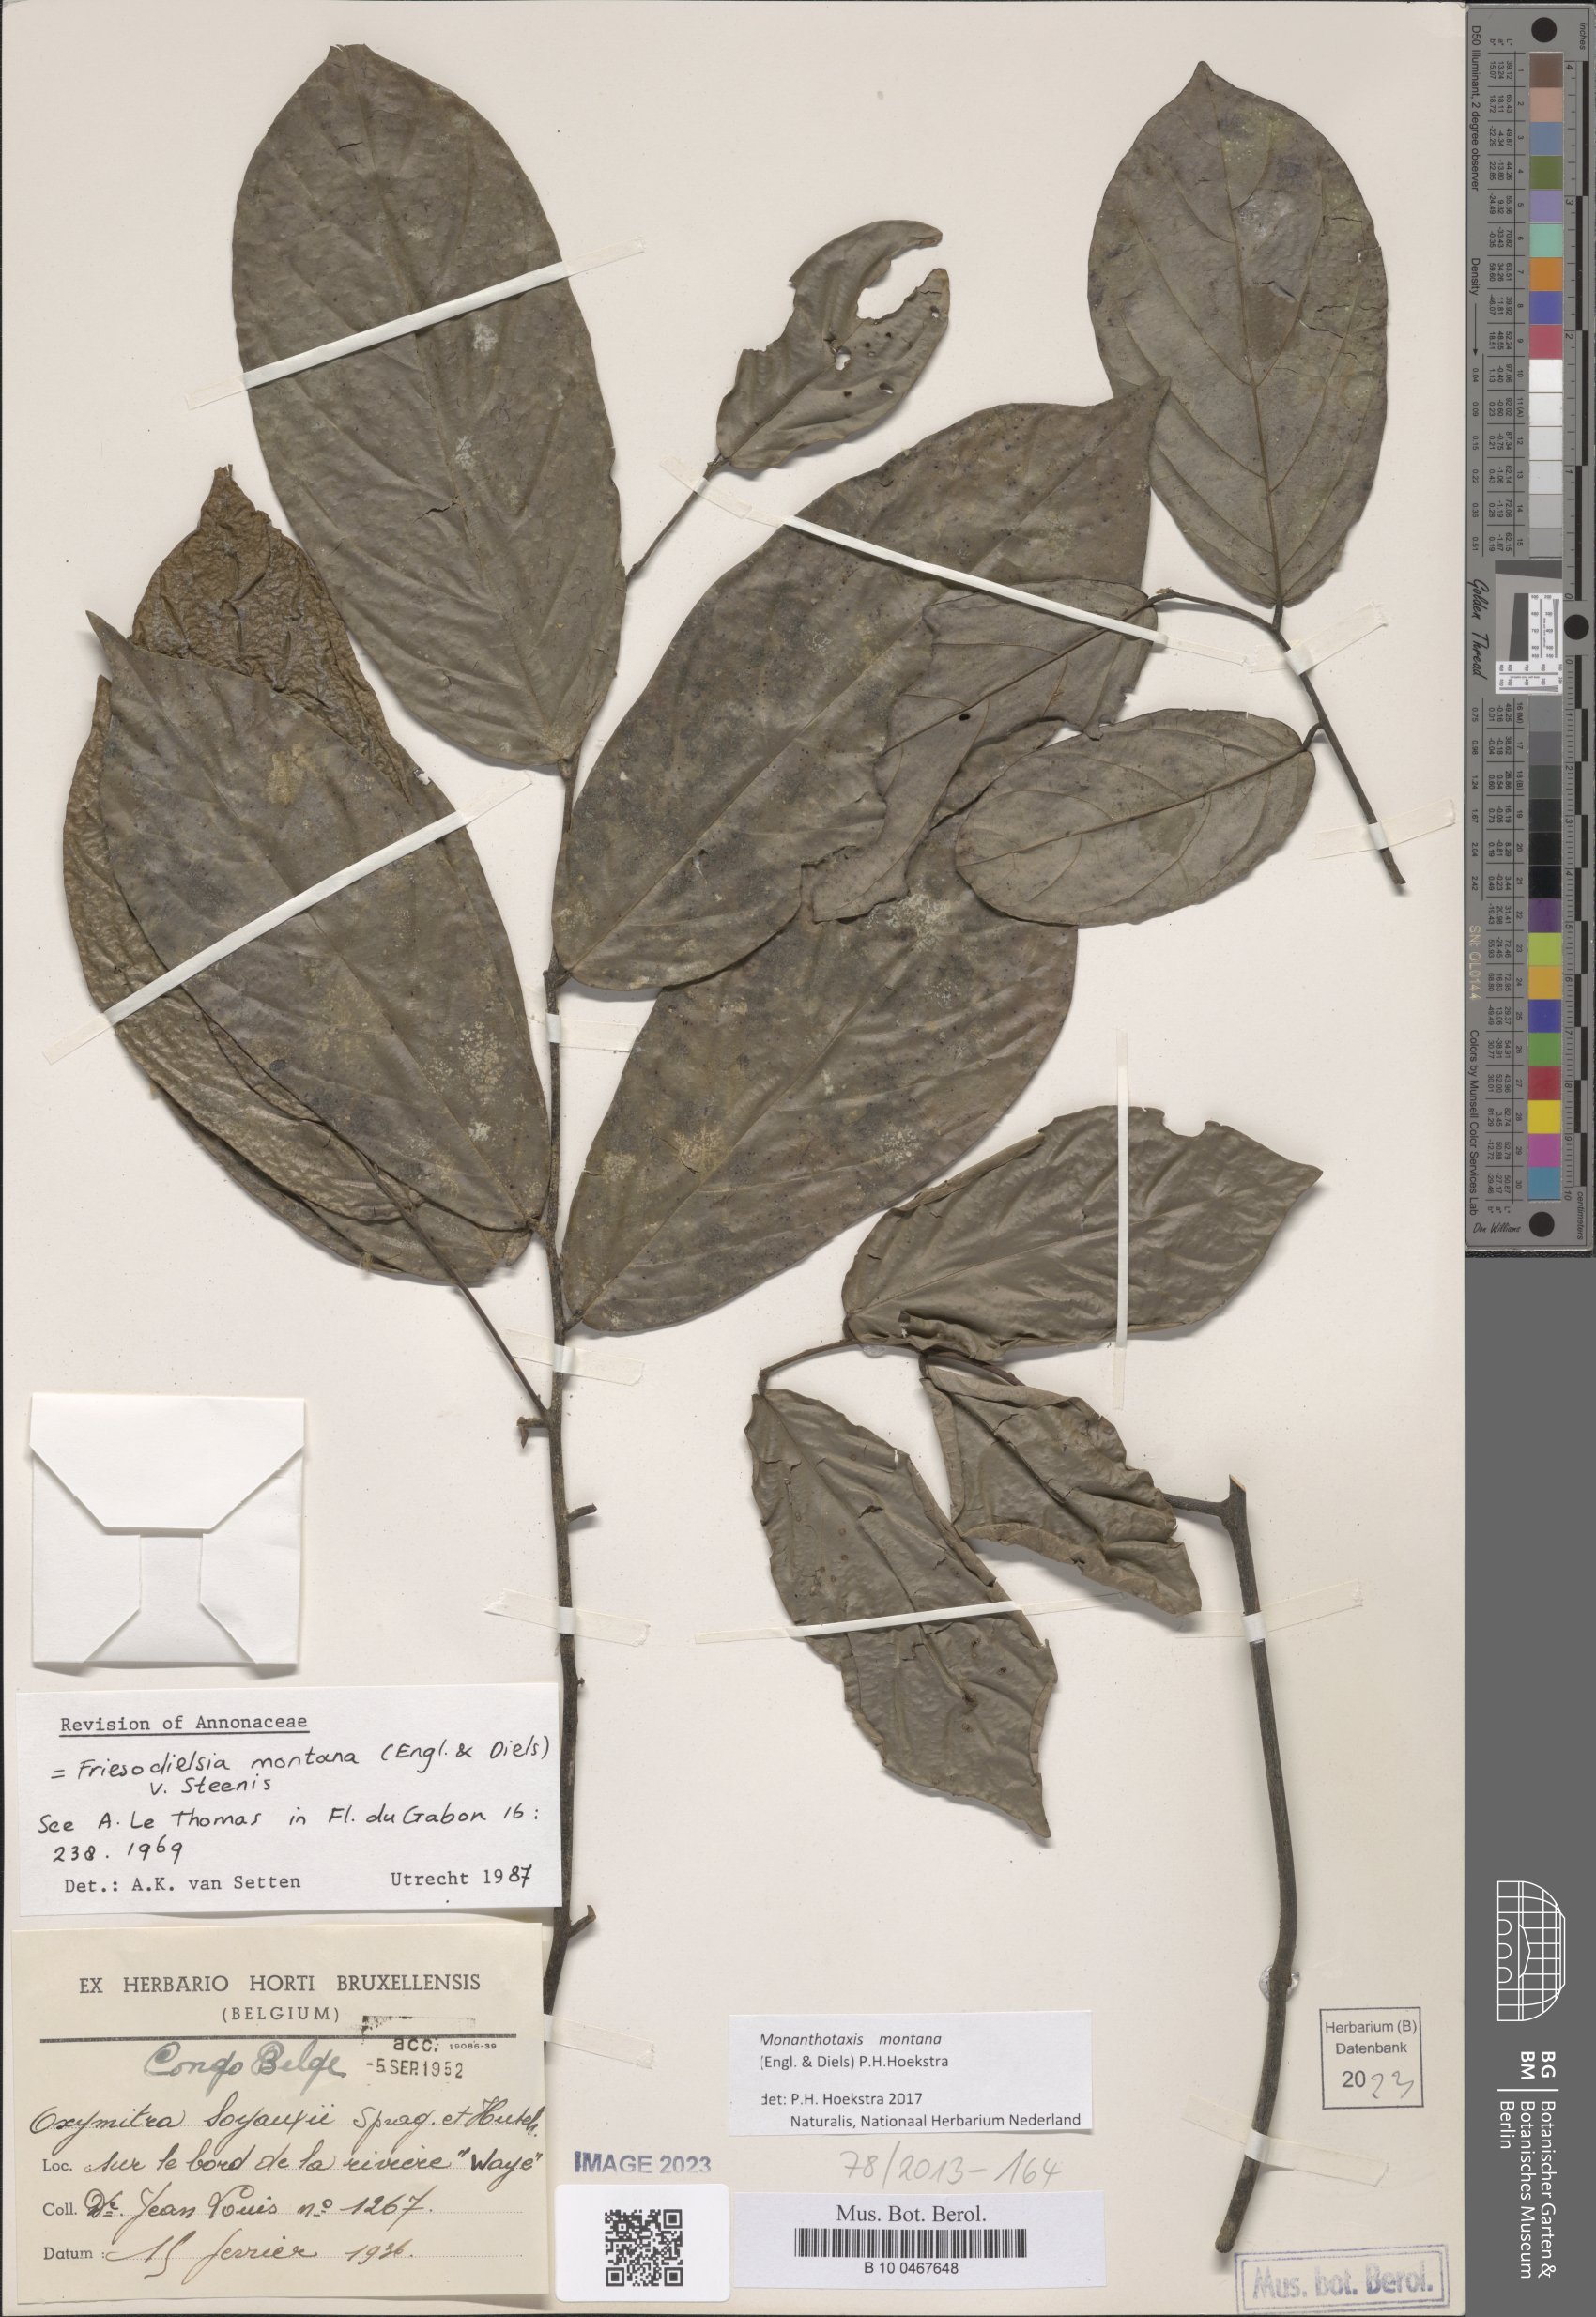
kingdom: Plantae
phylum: Tracheophyta
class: Magnoliopsida
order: Magnoliales
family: Annonaceae
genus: Friesodielsia
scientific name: Friesodielsia montana
